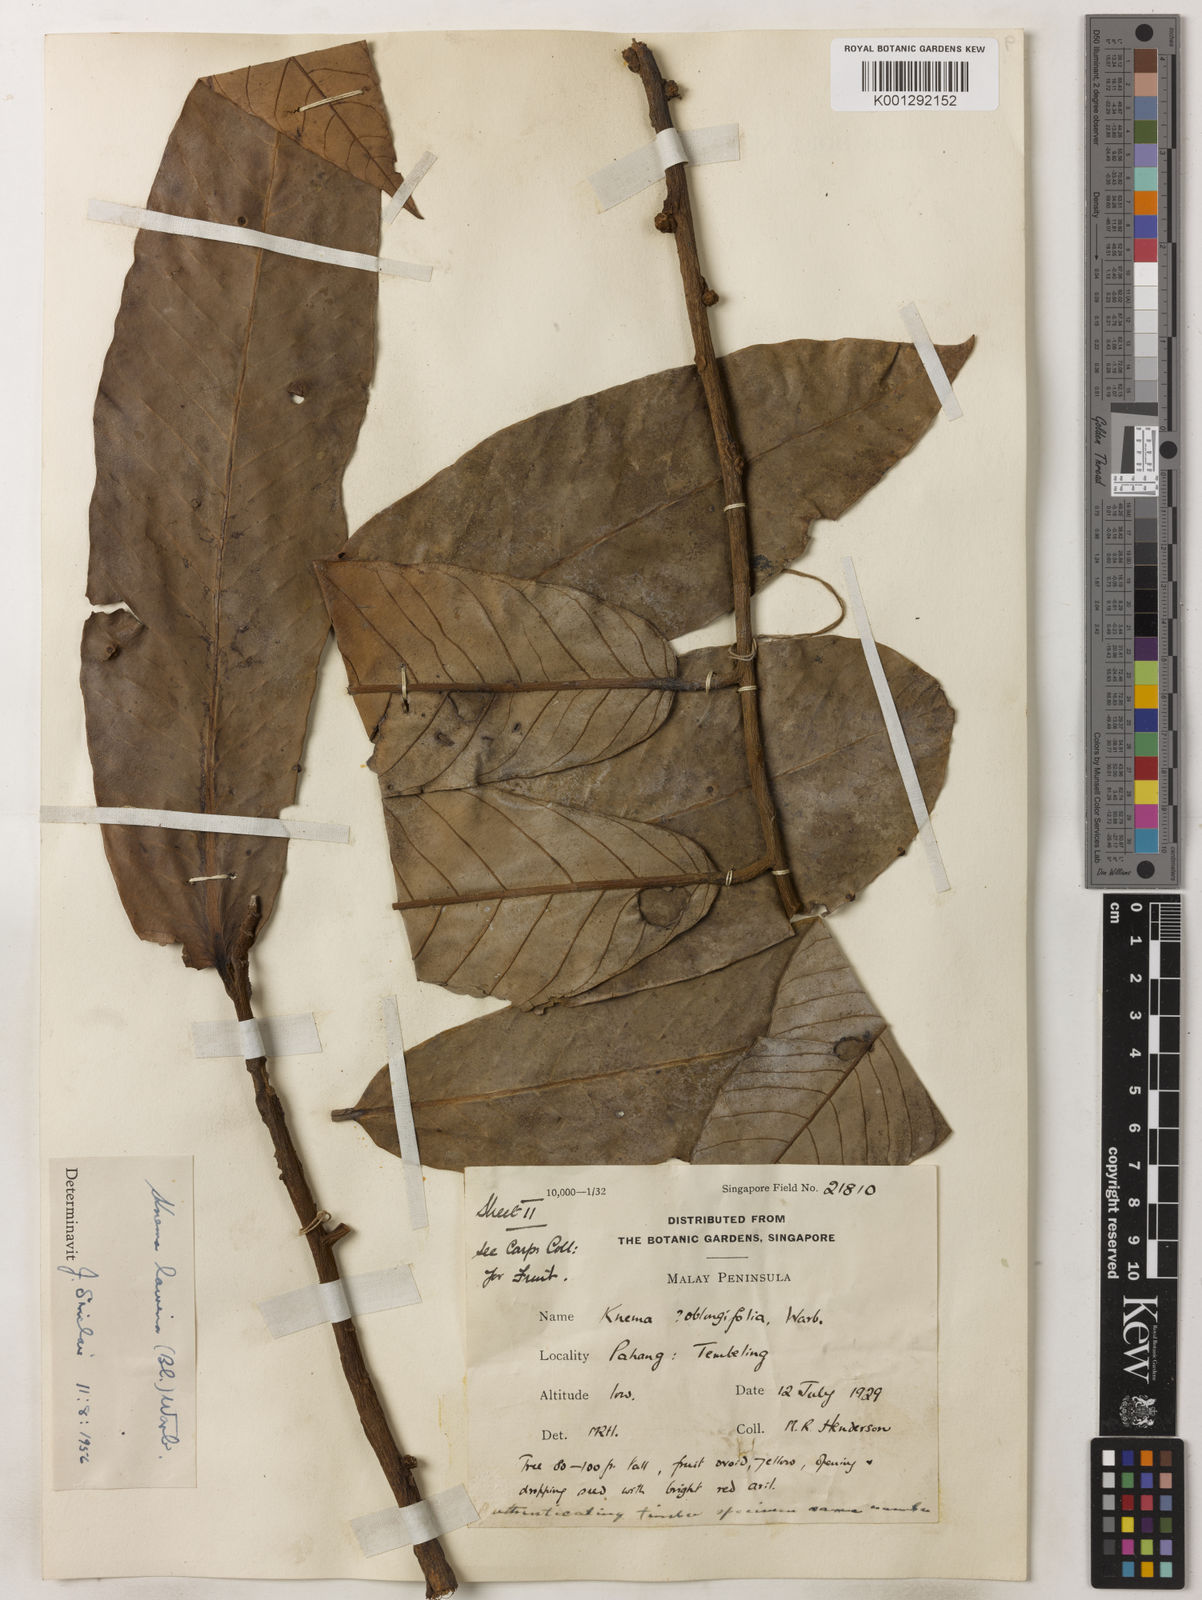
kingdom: Plantae
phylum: Tracheophyta
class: Magnoliopsida
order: Magnoliales
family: Myristicaceae
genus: Knema
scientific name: Knema laurina
